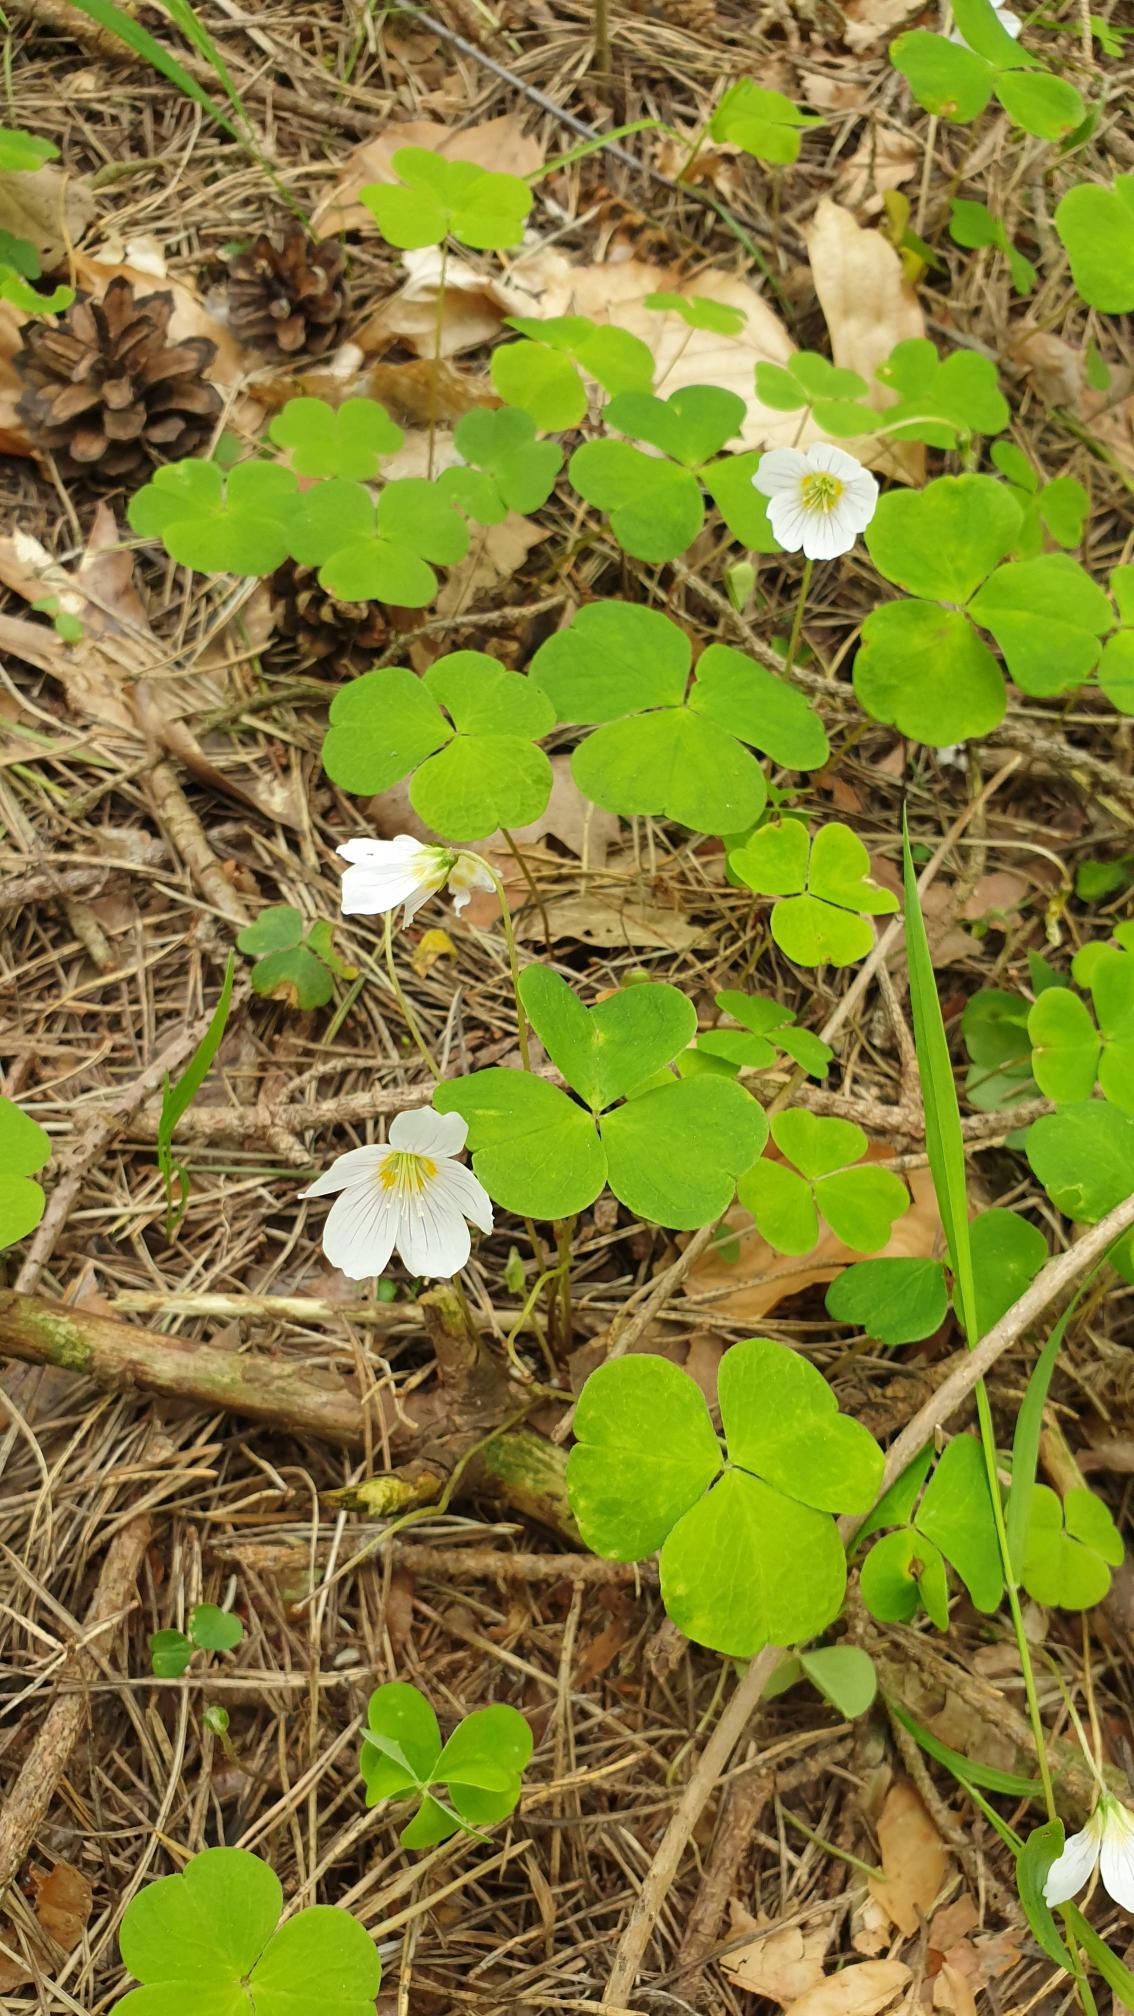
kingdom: Plantae
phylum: Tracheophyta
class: Magnoliopsida
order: Oxalidales
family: Oxalidaceae
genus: Oxalis
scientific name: Oxalis acetosella
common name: Skovsyre
